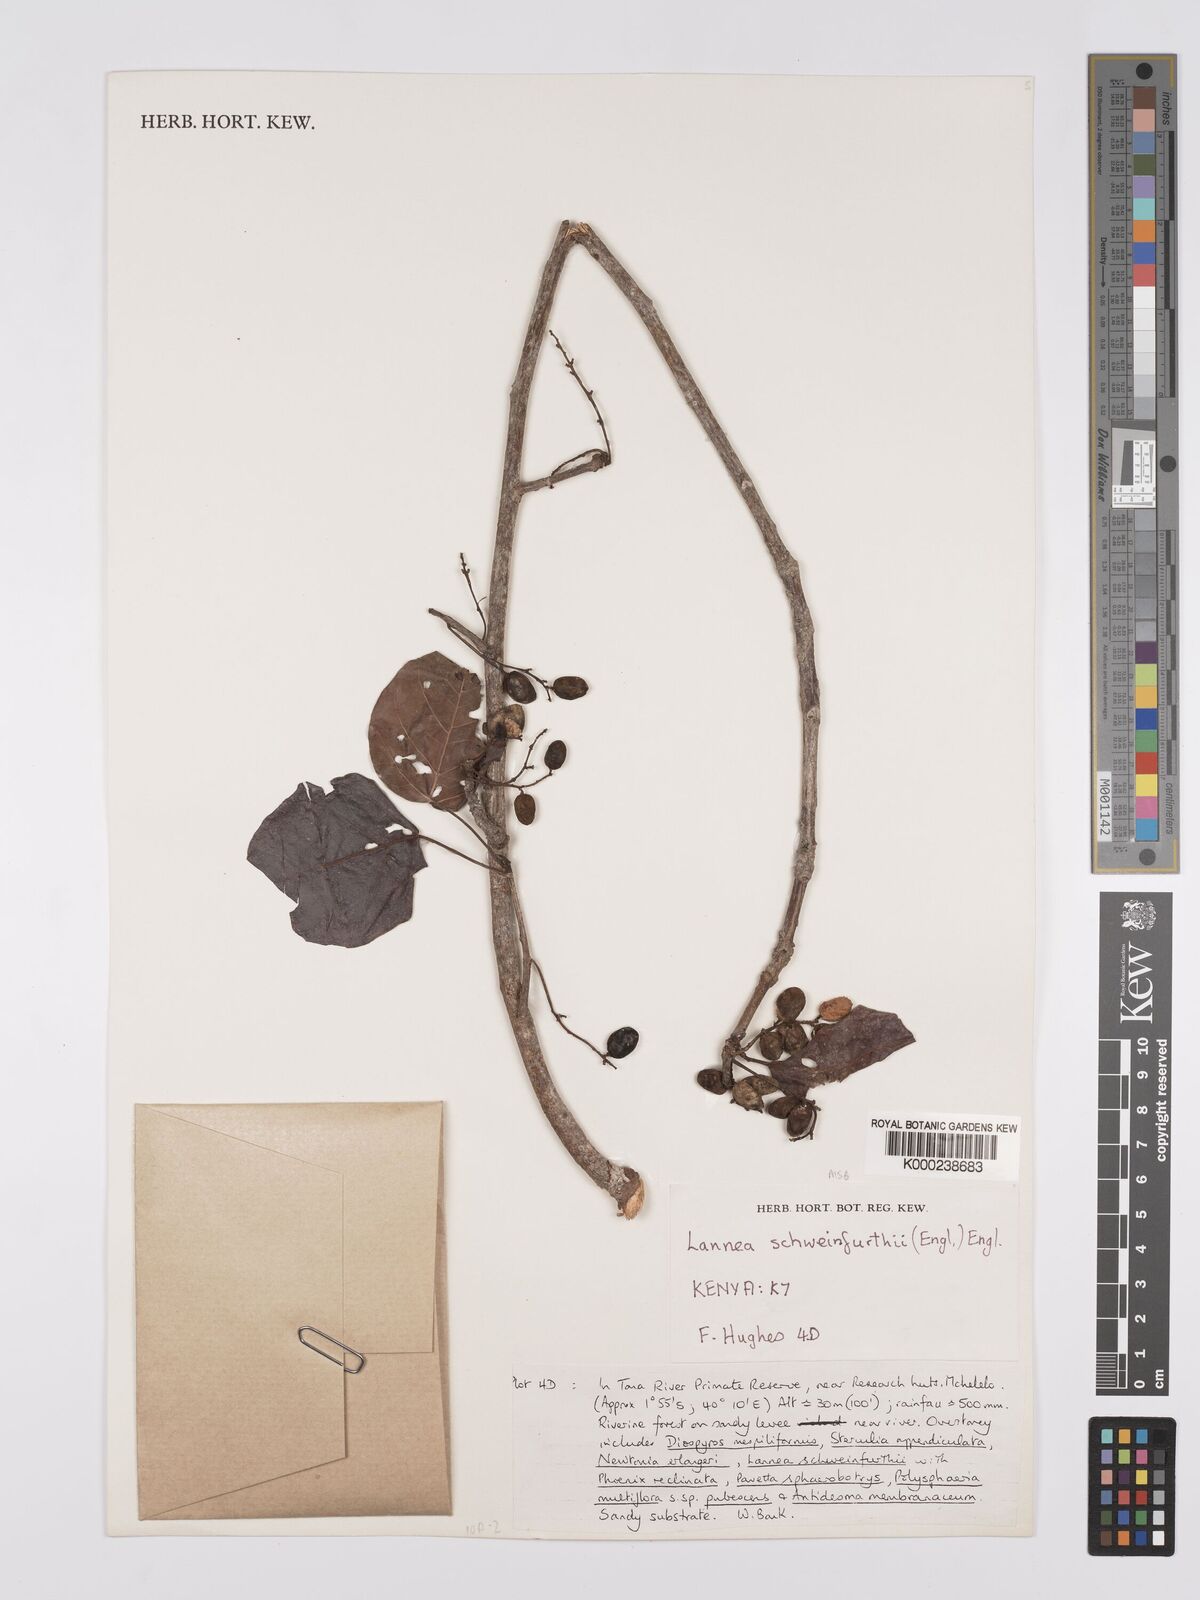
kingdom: Plantae
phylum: Tracheophyta
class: Magnoliopsida
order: Sapindales
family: Anacardiaceae
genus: Lannea
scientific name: Lannea schweinfurthii
